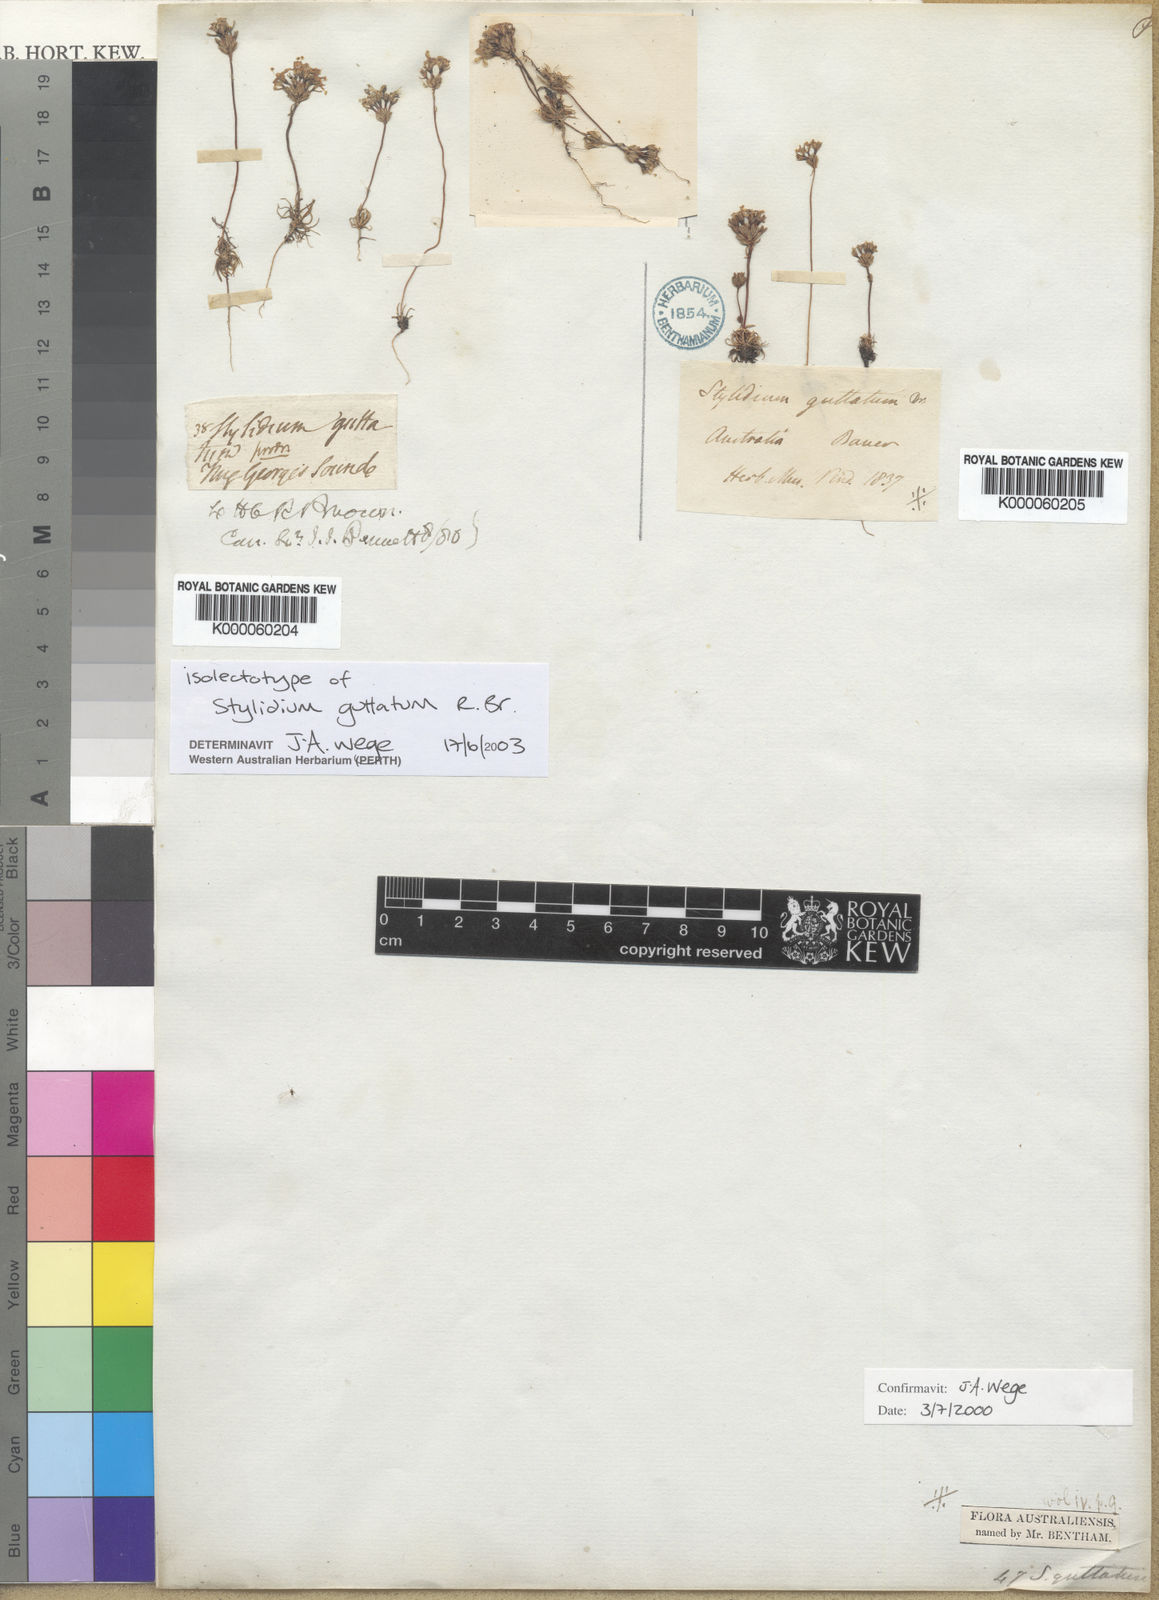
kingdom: Plantae
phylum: Tracheophyta
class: Magnoliopsida
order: Asterales
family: Stylidiaceae
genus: Stylidium
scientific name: Stylidium guttatum
